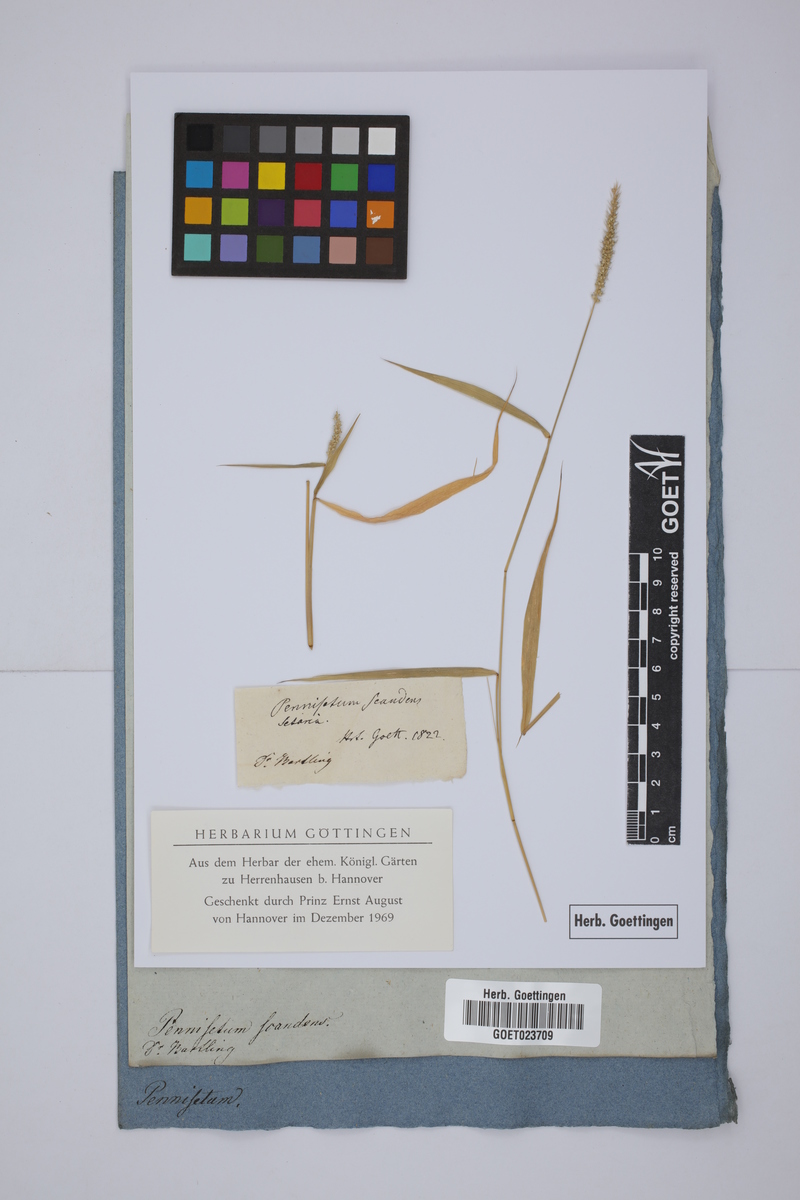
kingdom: Plantae
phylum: Tracheophyta
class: Liliopsida
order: Poales
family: Poaceae
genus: Setaria
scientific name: Setaria scandens
